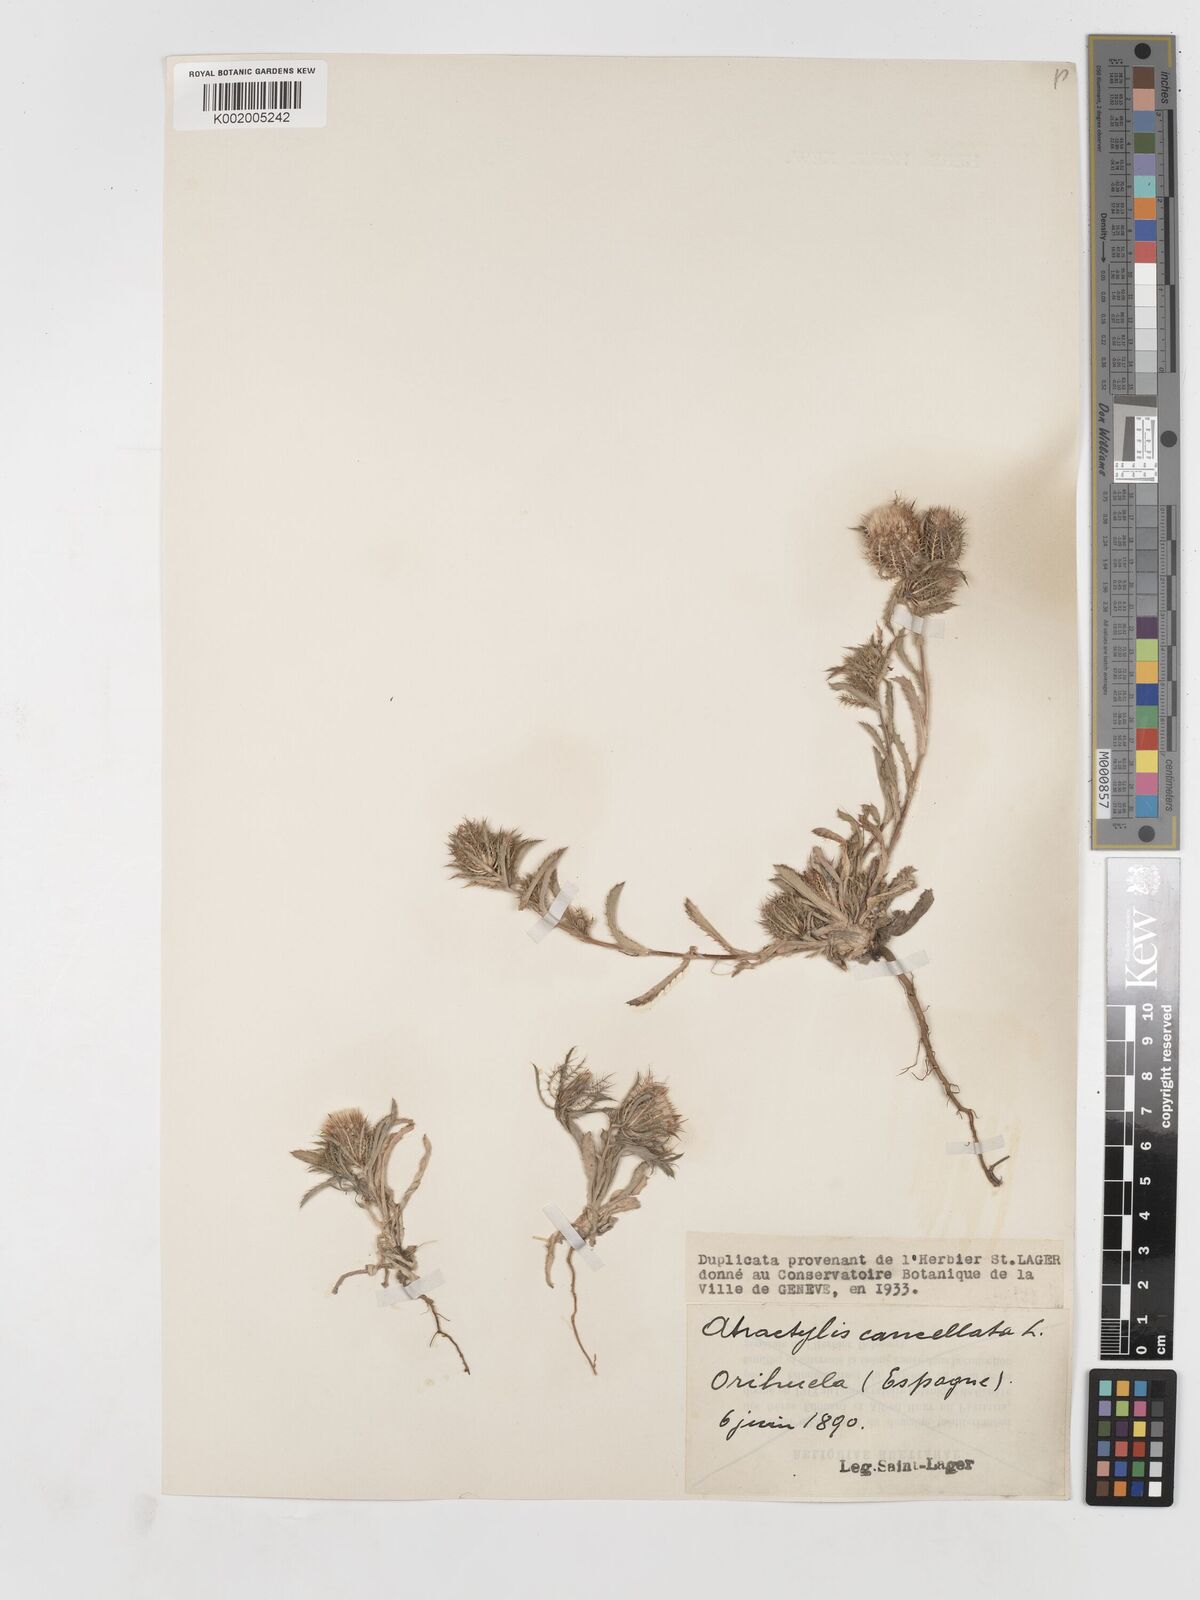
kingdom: Plantae
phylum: Tracheophyta
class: Magnoliopsida
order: Asterales
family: Asteraceae
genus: Atractylis
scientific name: Atractylis cancellata
